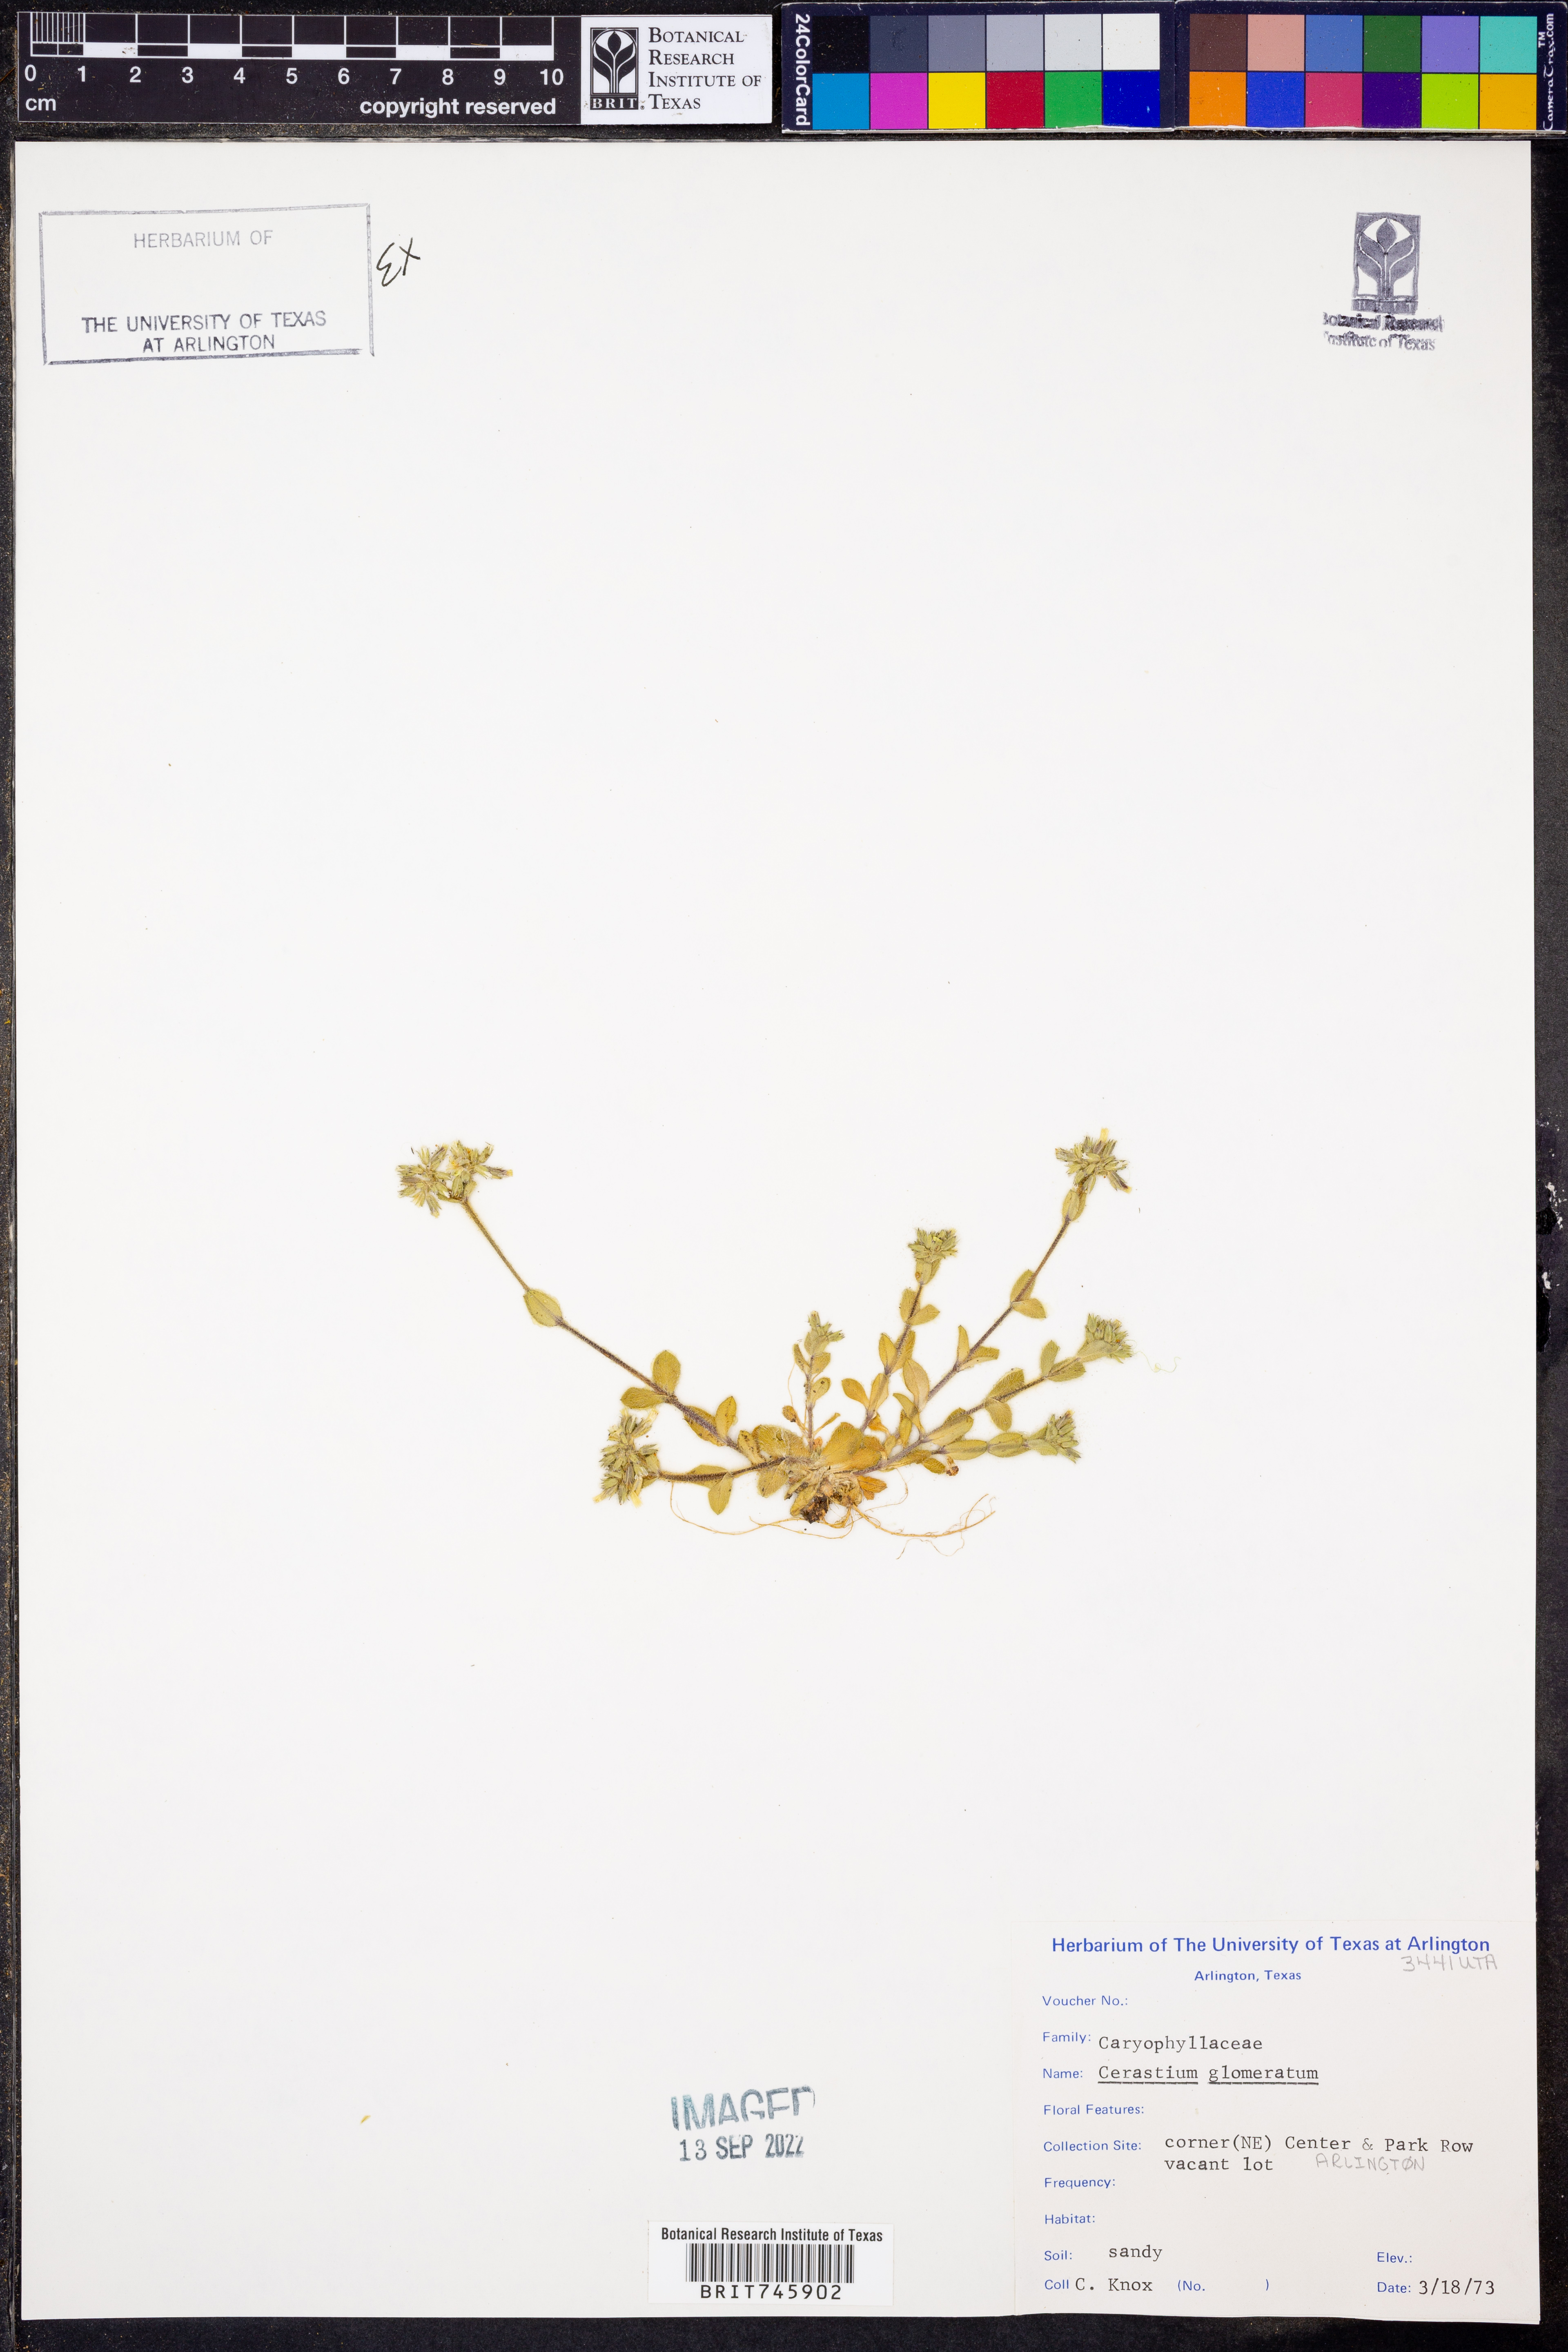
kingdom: Plantae
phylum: Tracheophyta
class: Magnoliopsida
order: Caryophyllales
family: Caryophyllaceae
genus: Cerastium
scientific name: Cerastium glomeratum
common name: Sticky chickweed
